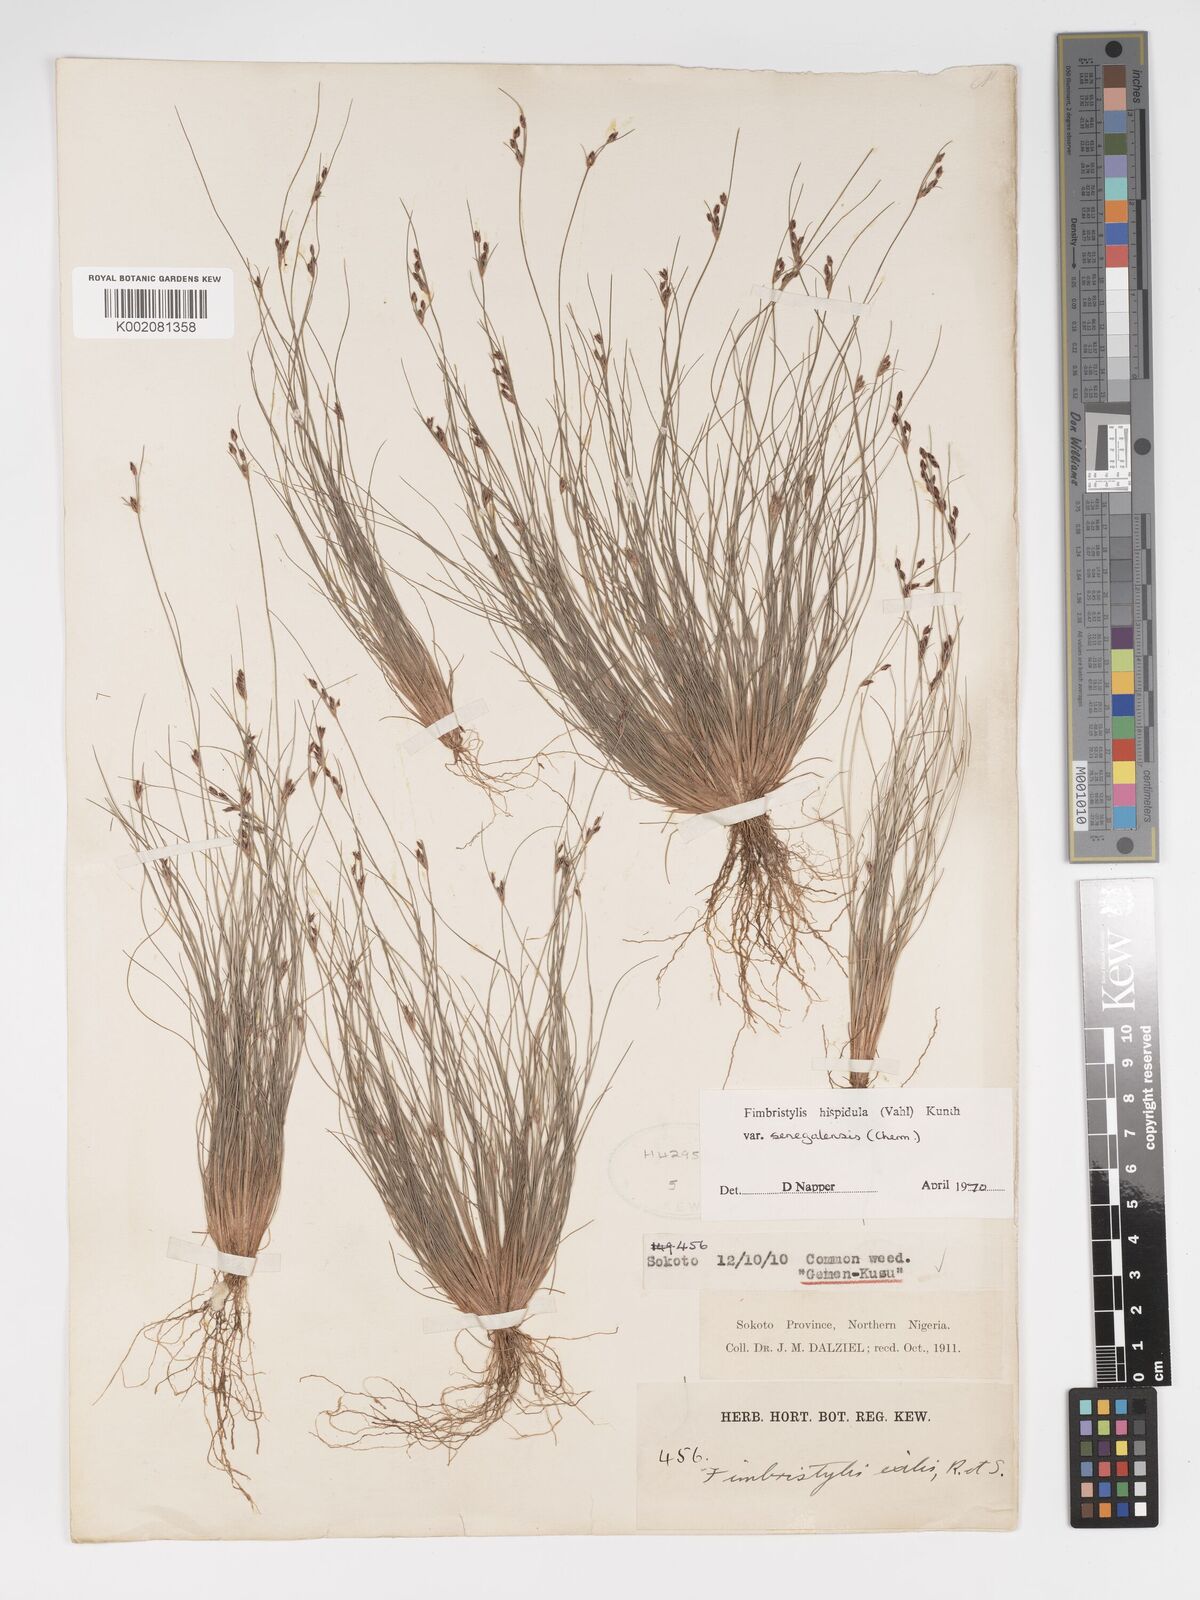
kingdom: Plantae
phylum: Tracheophyta
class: Liliopsida
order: Poales
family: Cyperaceae
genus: Bulbostylis
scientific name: Bulbostylis hispidula
